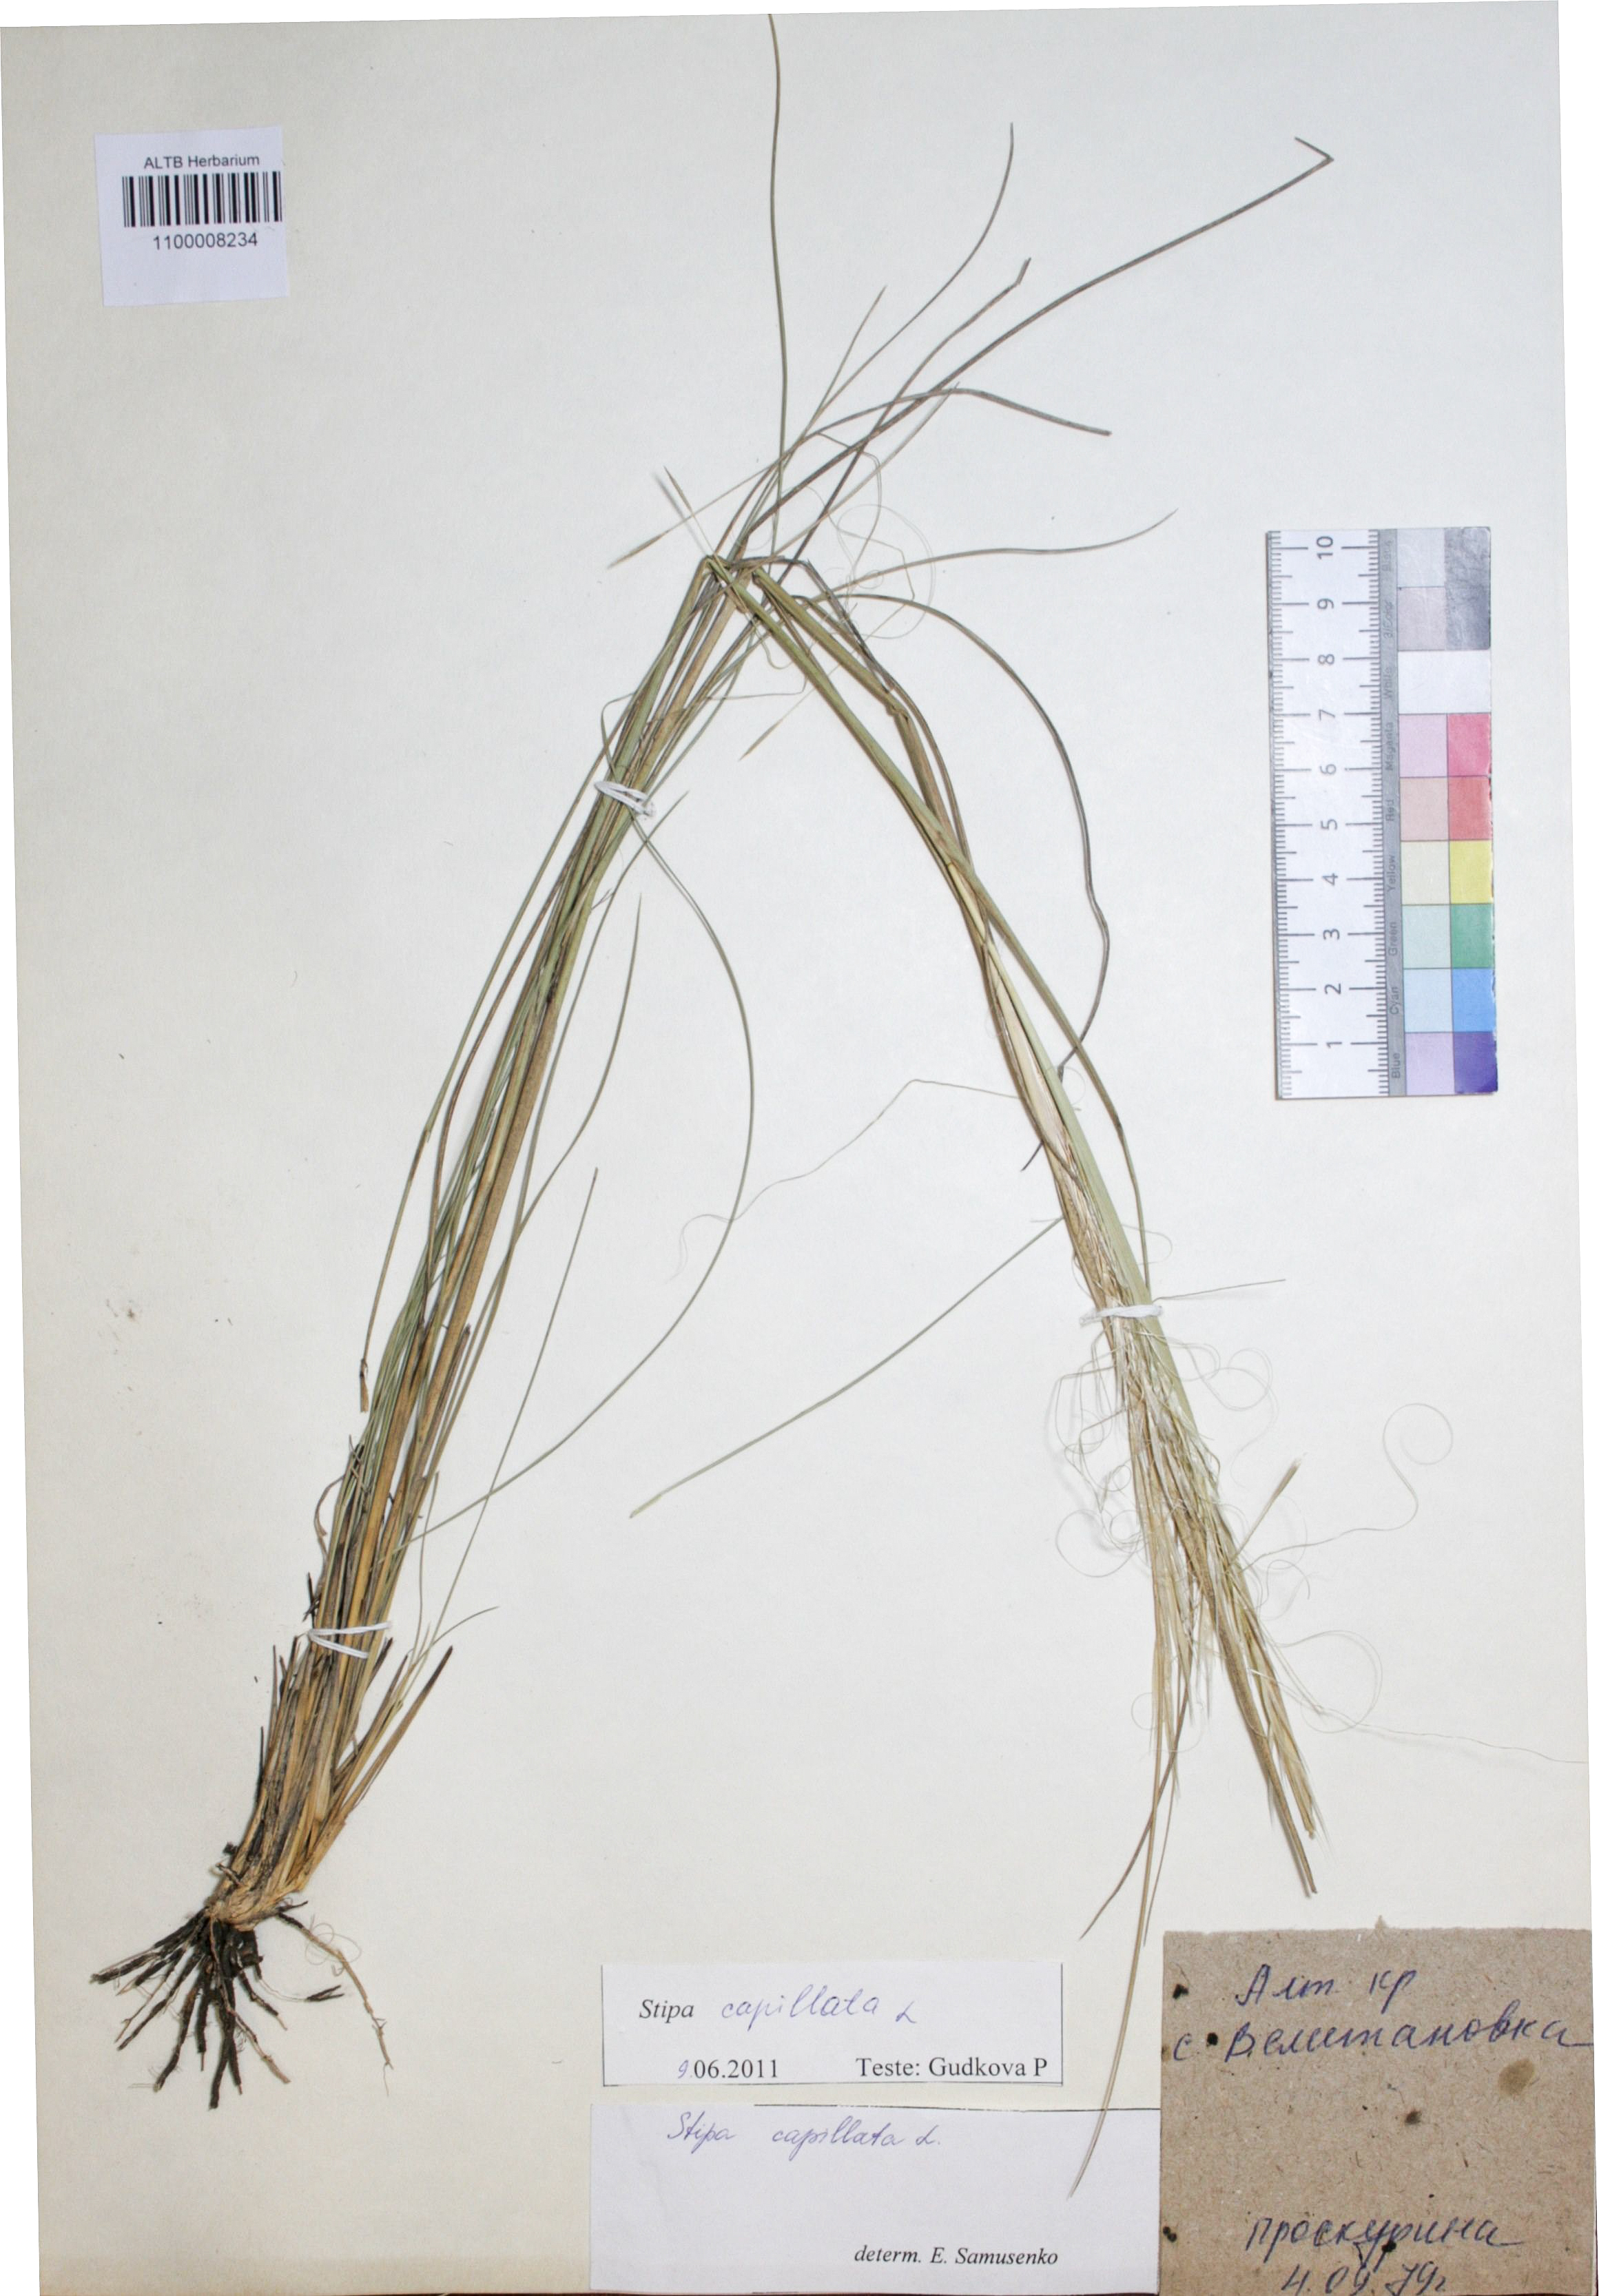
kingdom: Plantae
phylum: Tracheophyta
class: Liliopsida
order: Poales
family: Poaceae
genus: Stipa
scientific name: Stipa capillata
